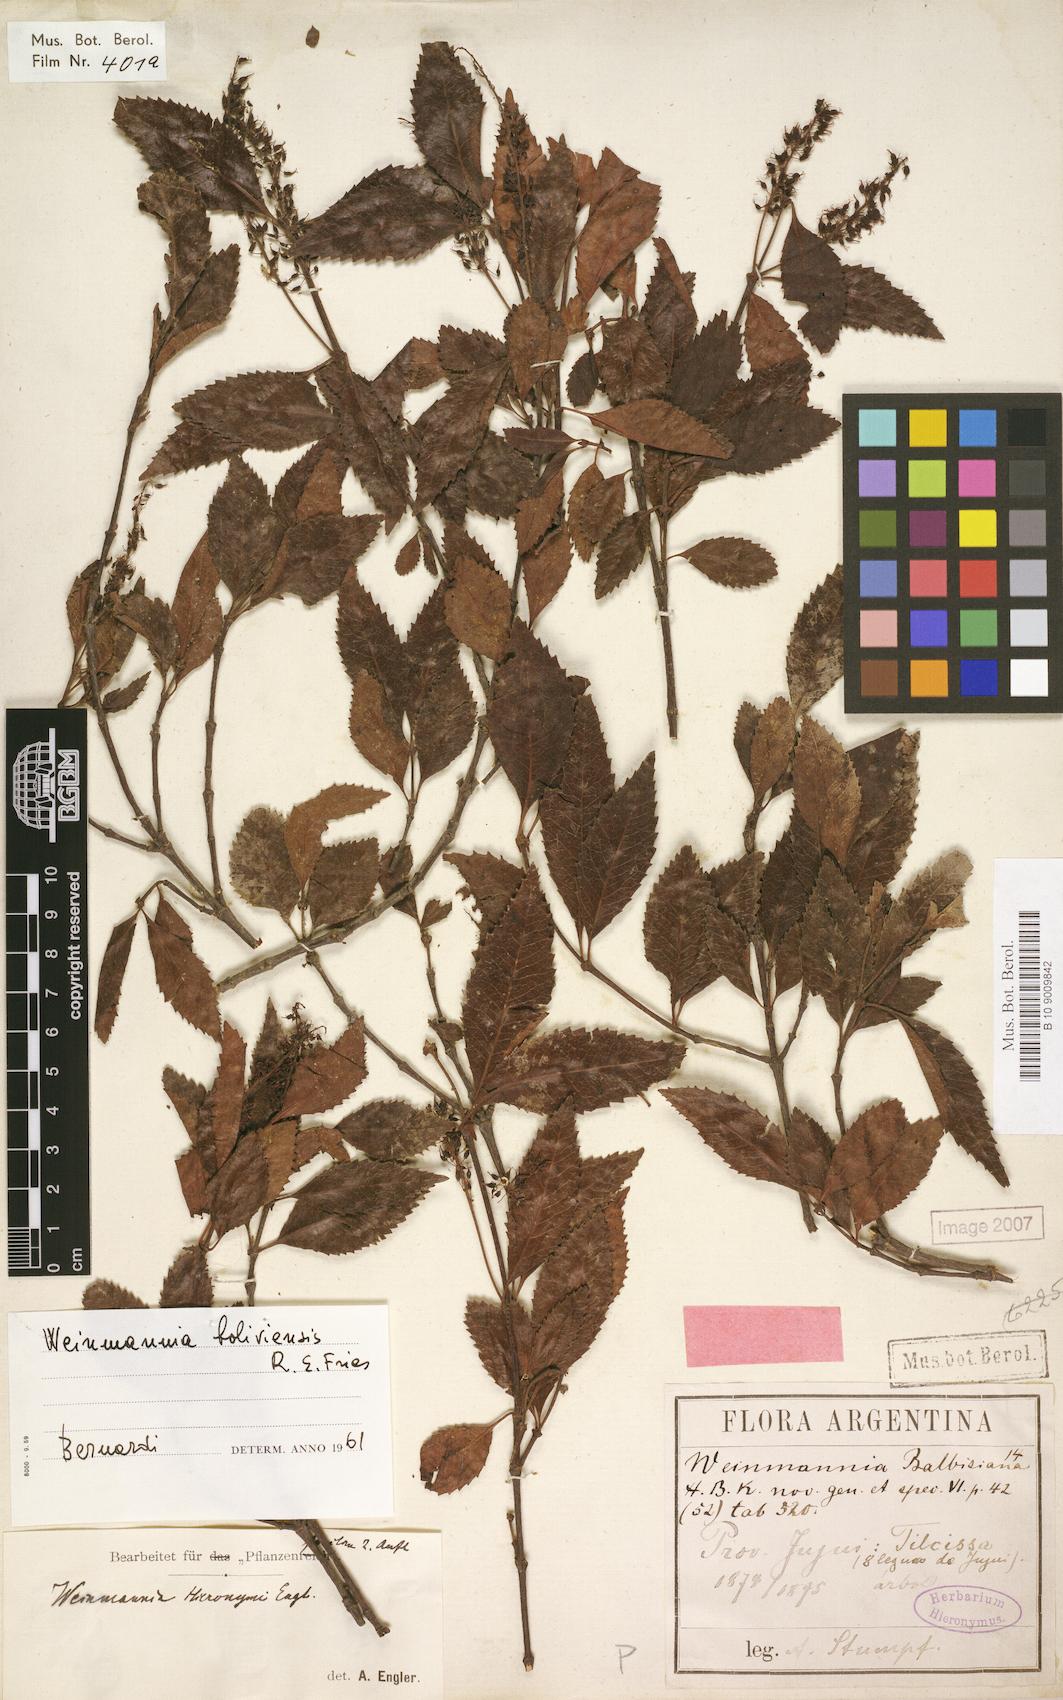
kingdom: Plantae
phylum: Tracheophyta
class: Magnoliopsida
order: Oxalidales
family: Cunoniaceae
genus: Weinmannia
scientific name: Weinmannia boliviensis
